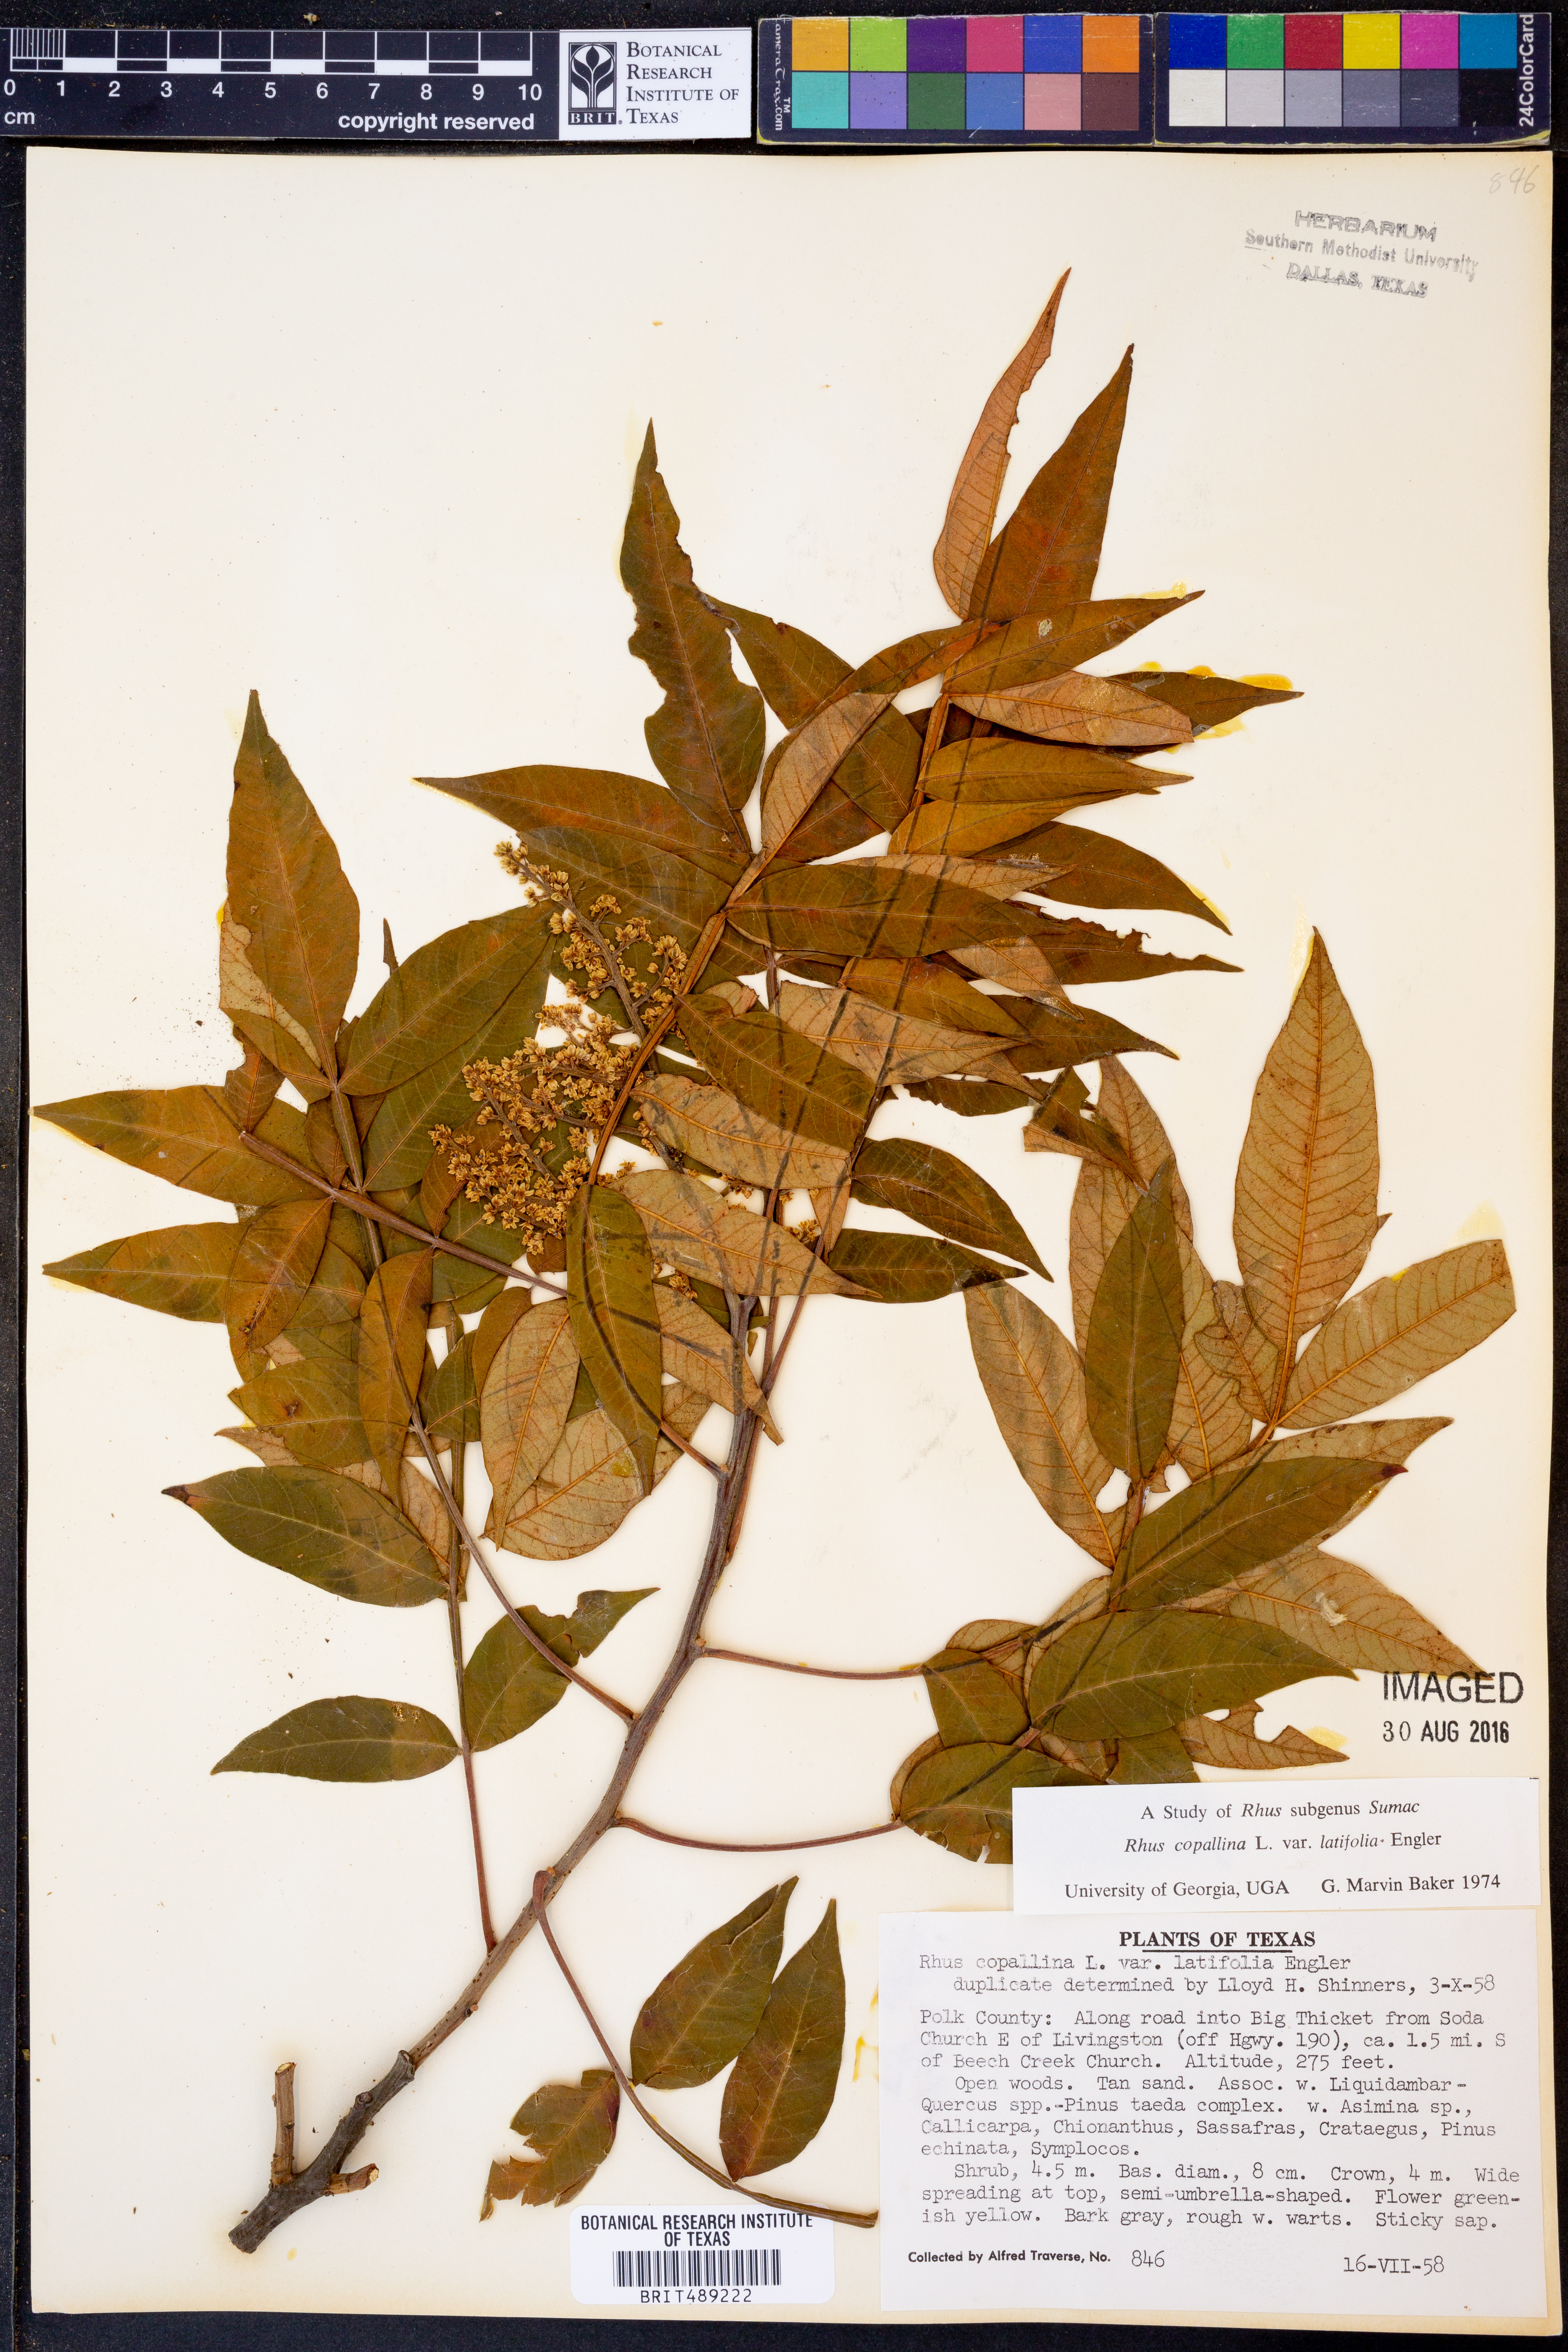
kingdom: Plantae
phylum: Tracheophyta
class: Magnoliopsida
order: Sapindales
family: Anacardiaceae
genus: Rhus
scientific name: Rhus copallina
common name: Shining sumac
